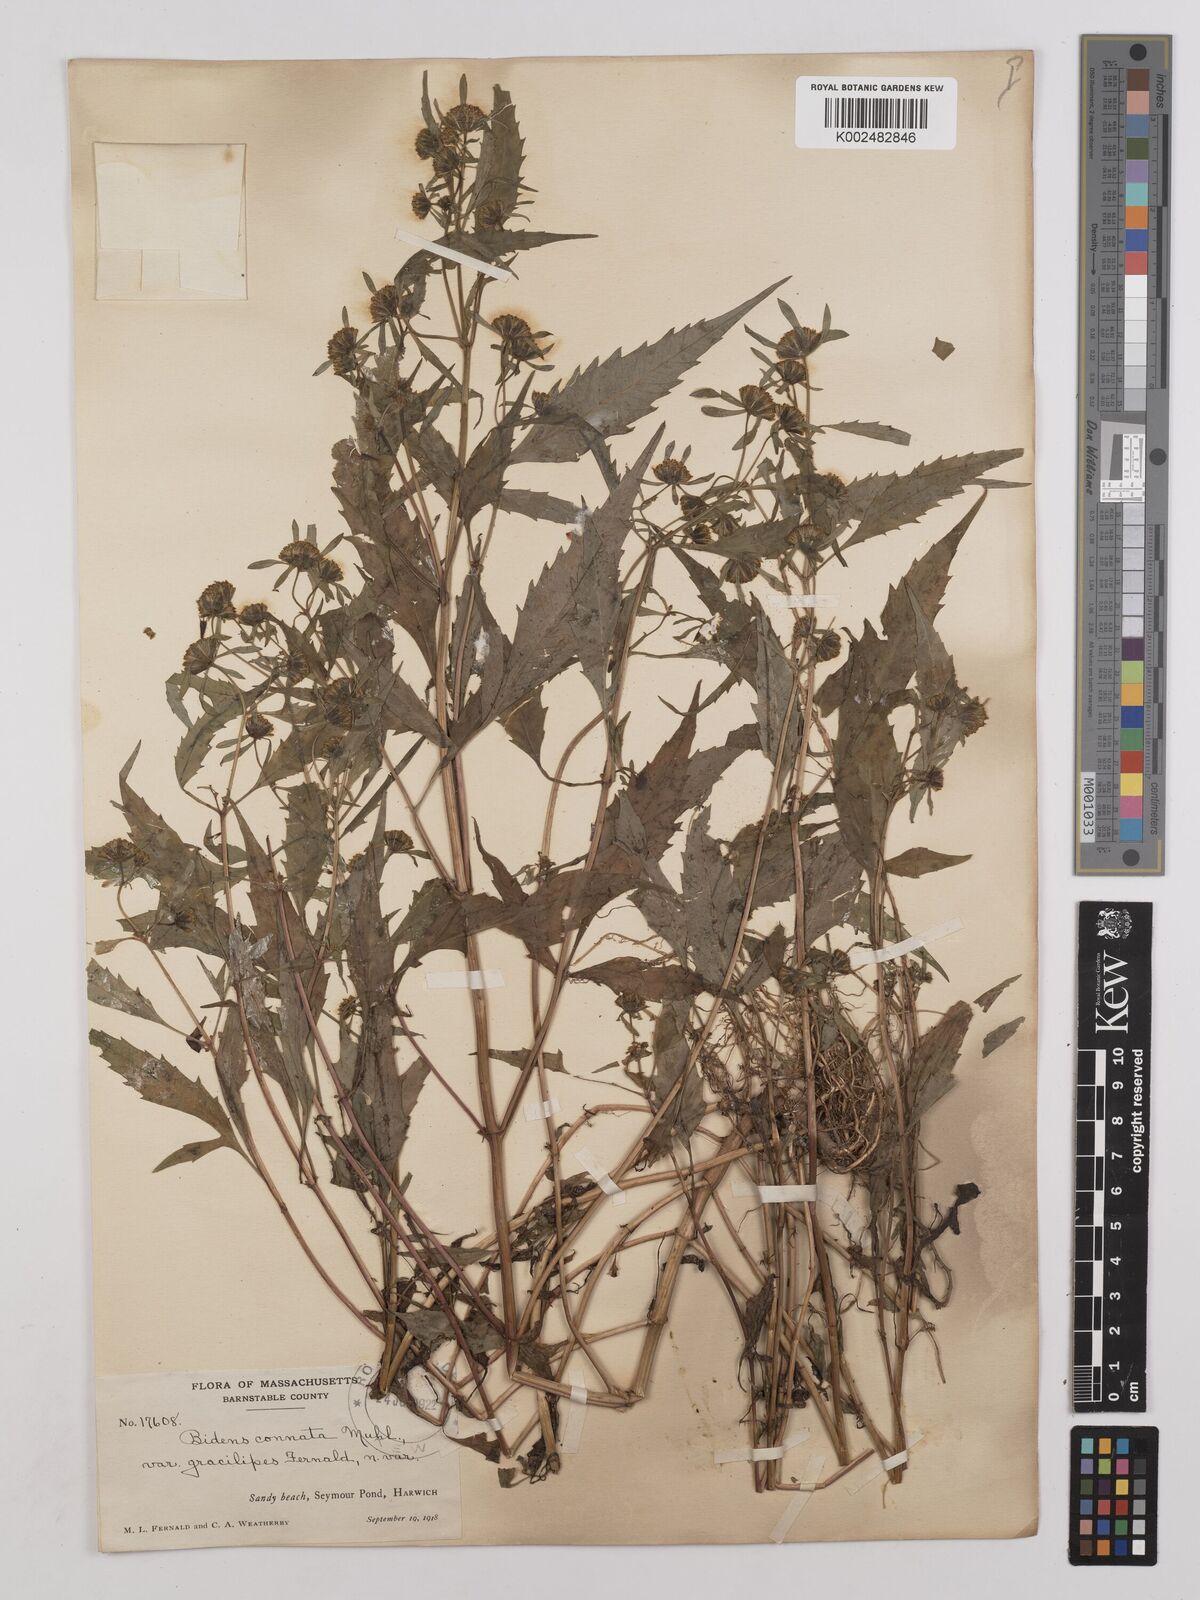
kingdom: Plantae
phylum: Tracheophyta
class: Magnoliopsida
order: Asterales
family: Asteraceae
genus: Bidens
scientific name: Bidens connata
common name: London bur-marigold
